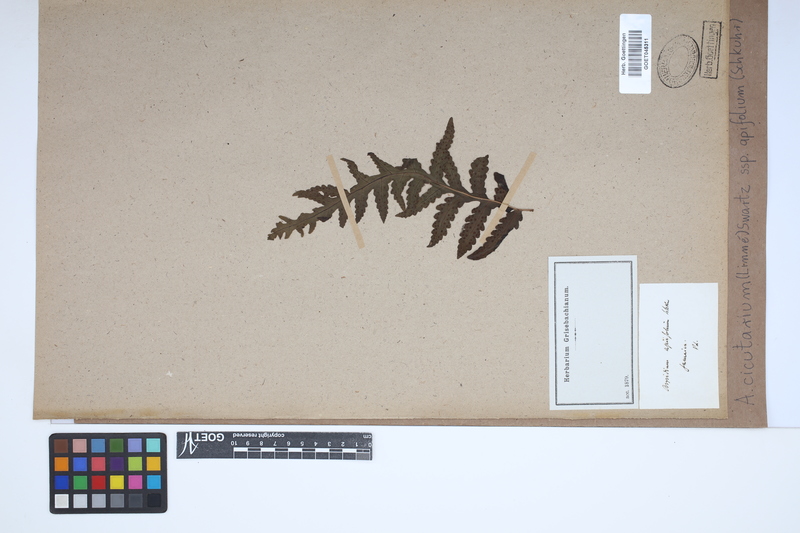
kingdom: Plantae
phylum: Tracheophyta
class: Polypodiopsida
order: Polypodiales
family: Tectariaceae
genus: Tectaria
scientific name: Tectaria cicutaria
